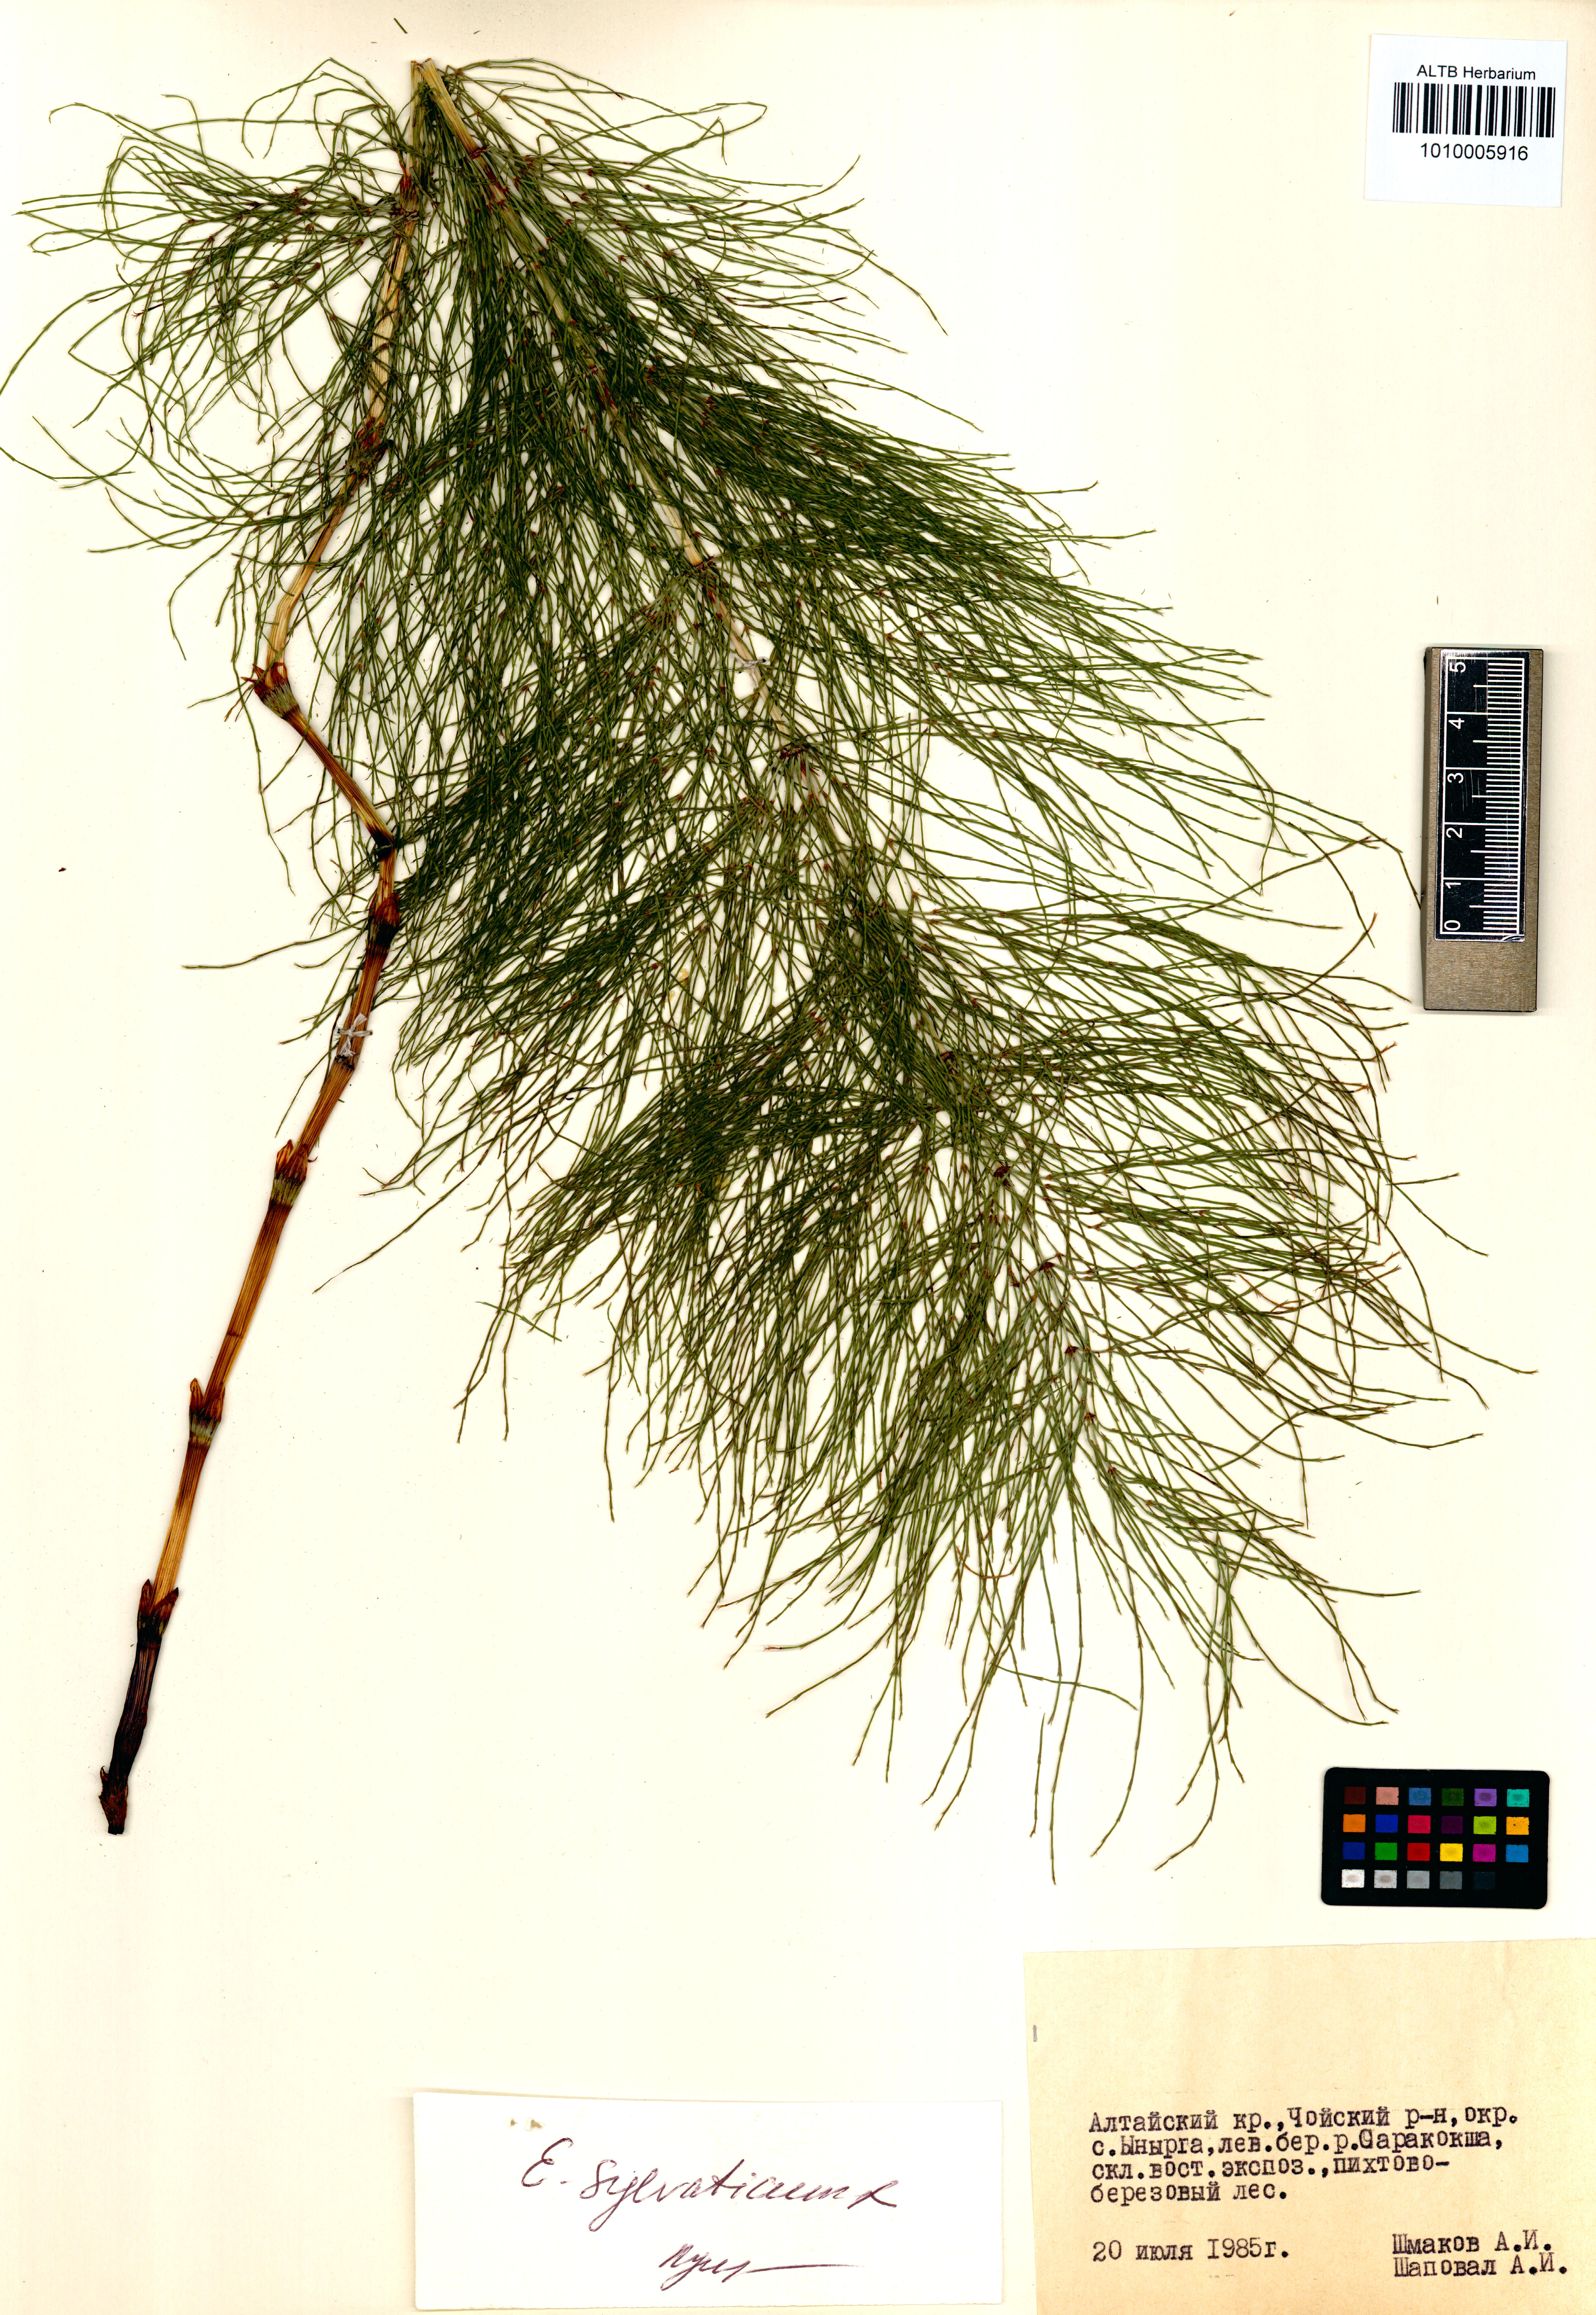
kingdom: Plantae
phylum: Tracheophyta
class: Polypodiopsida
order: Equisetales
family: Equisetaceae
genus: Equisetum
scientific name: Equisetum sylvaticum
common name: Wood horsetail
